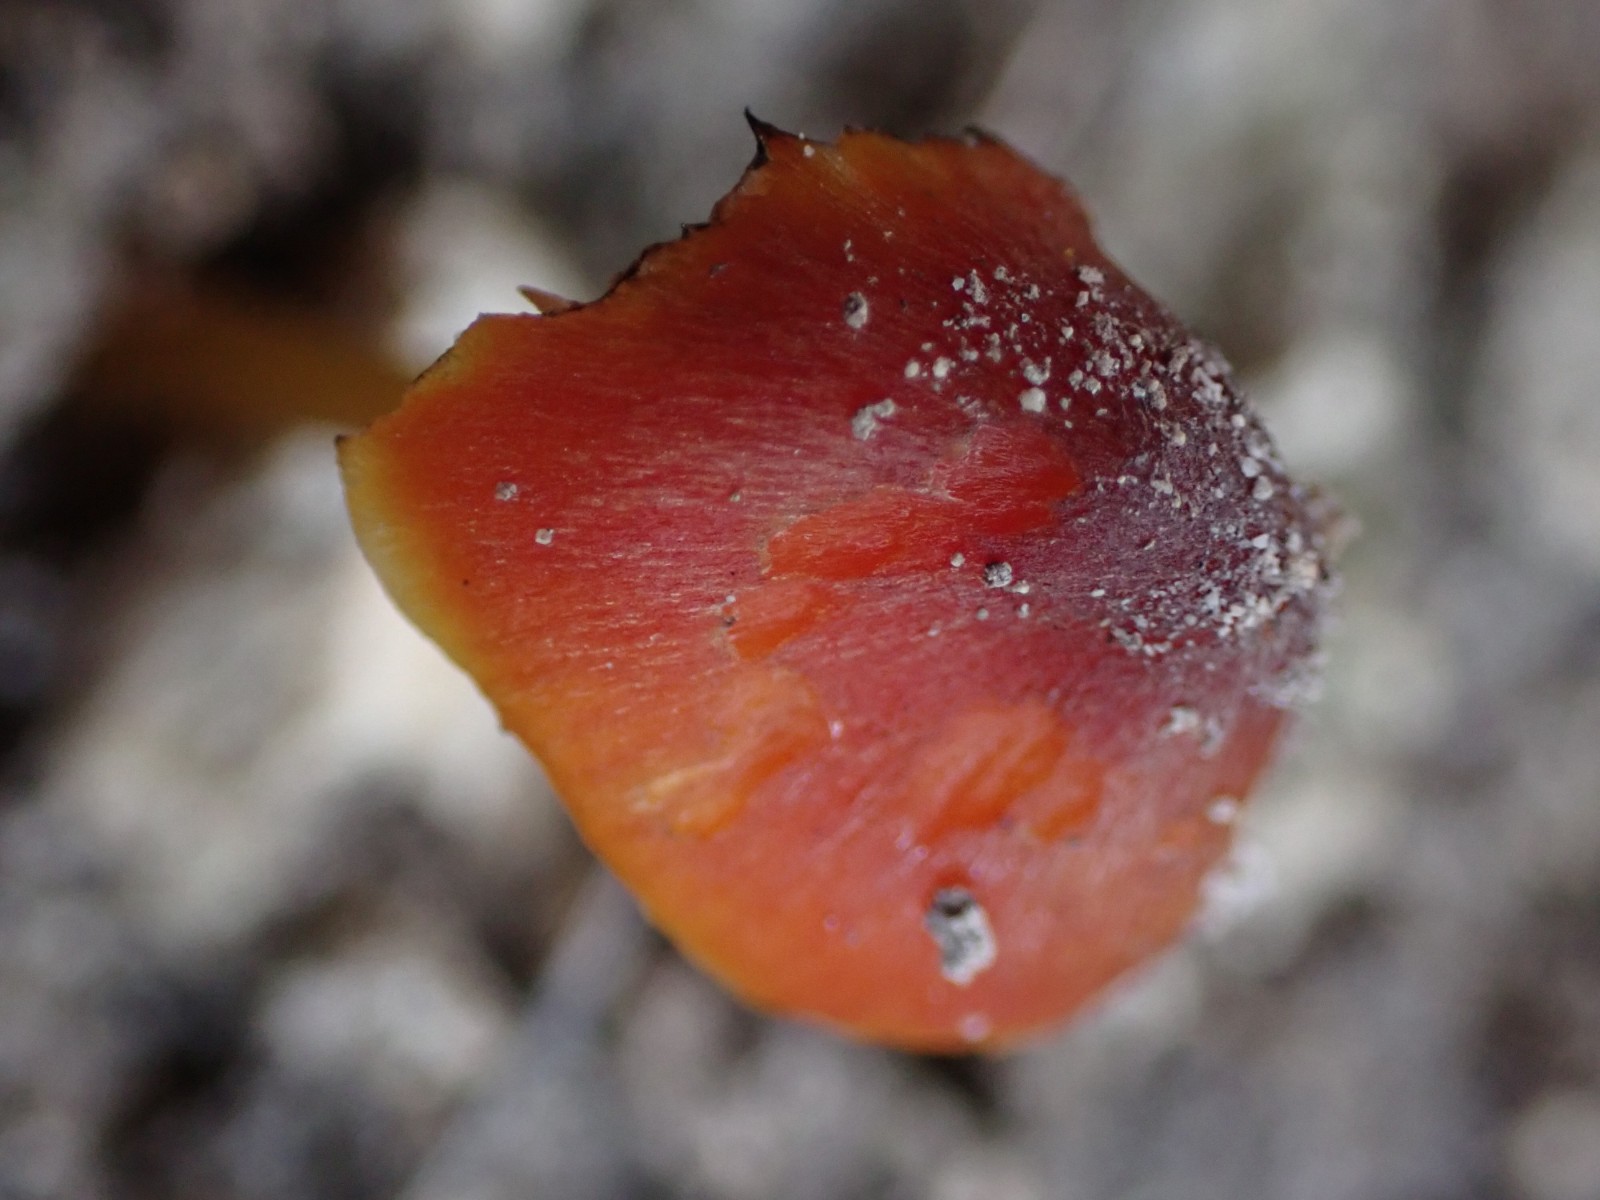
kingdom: Fungi
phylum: Basidiomycota
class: Agaricomycetes
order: Agaricales
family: Hygrophoraceae
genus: Hygrocybe
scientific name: Hygrocybe conica
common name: kegle-vokshat
